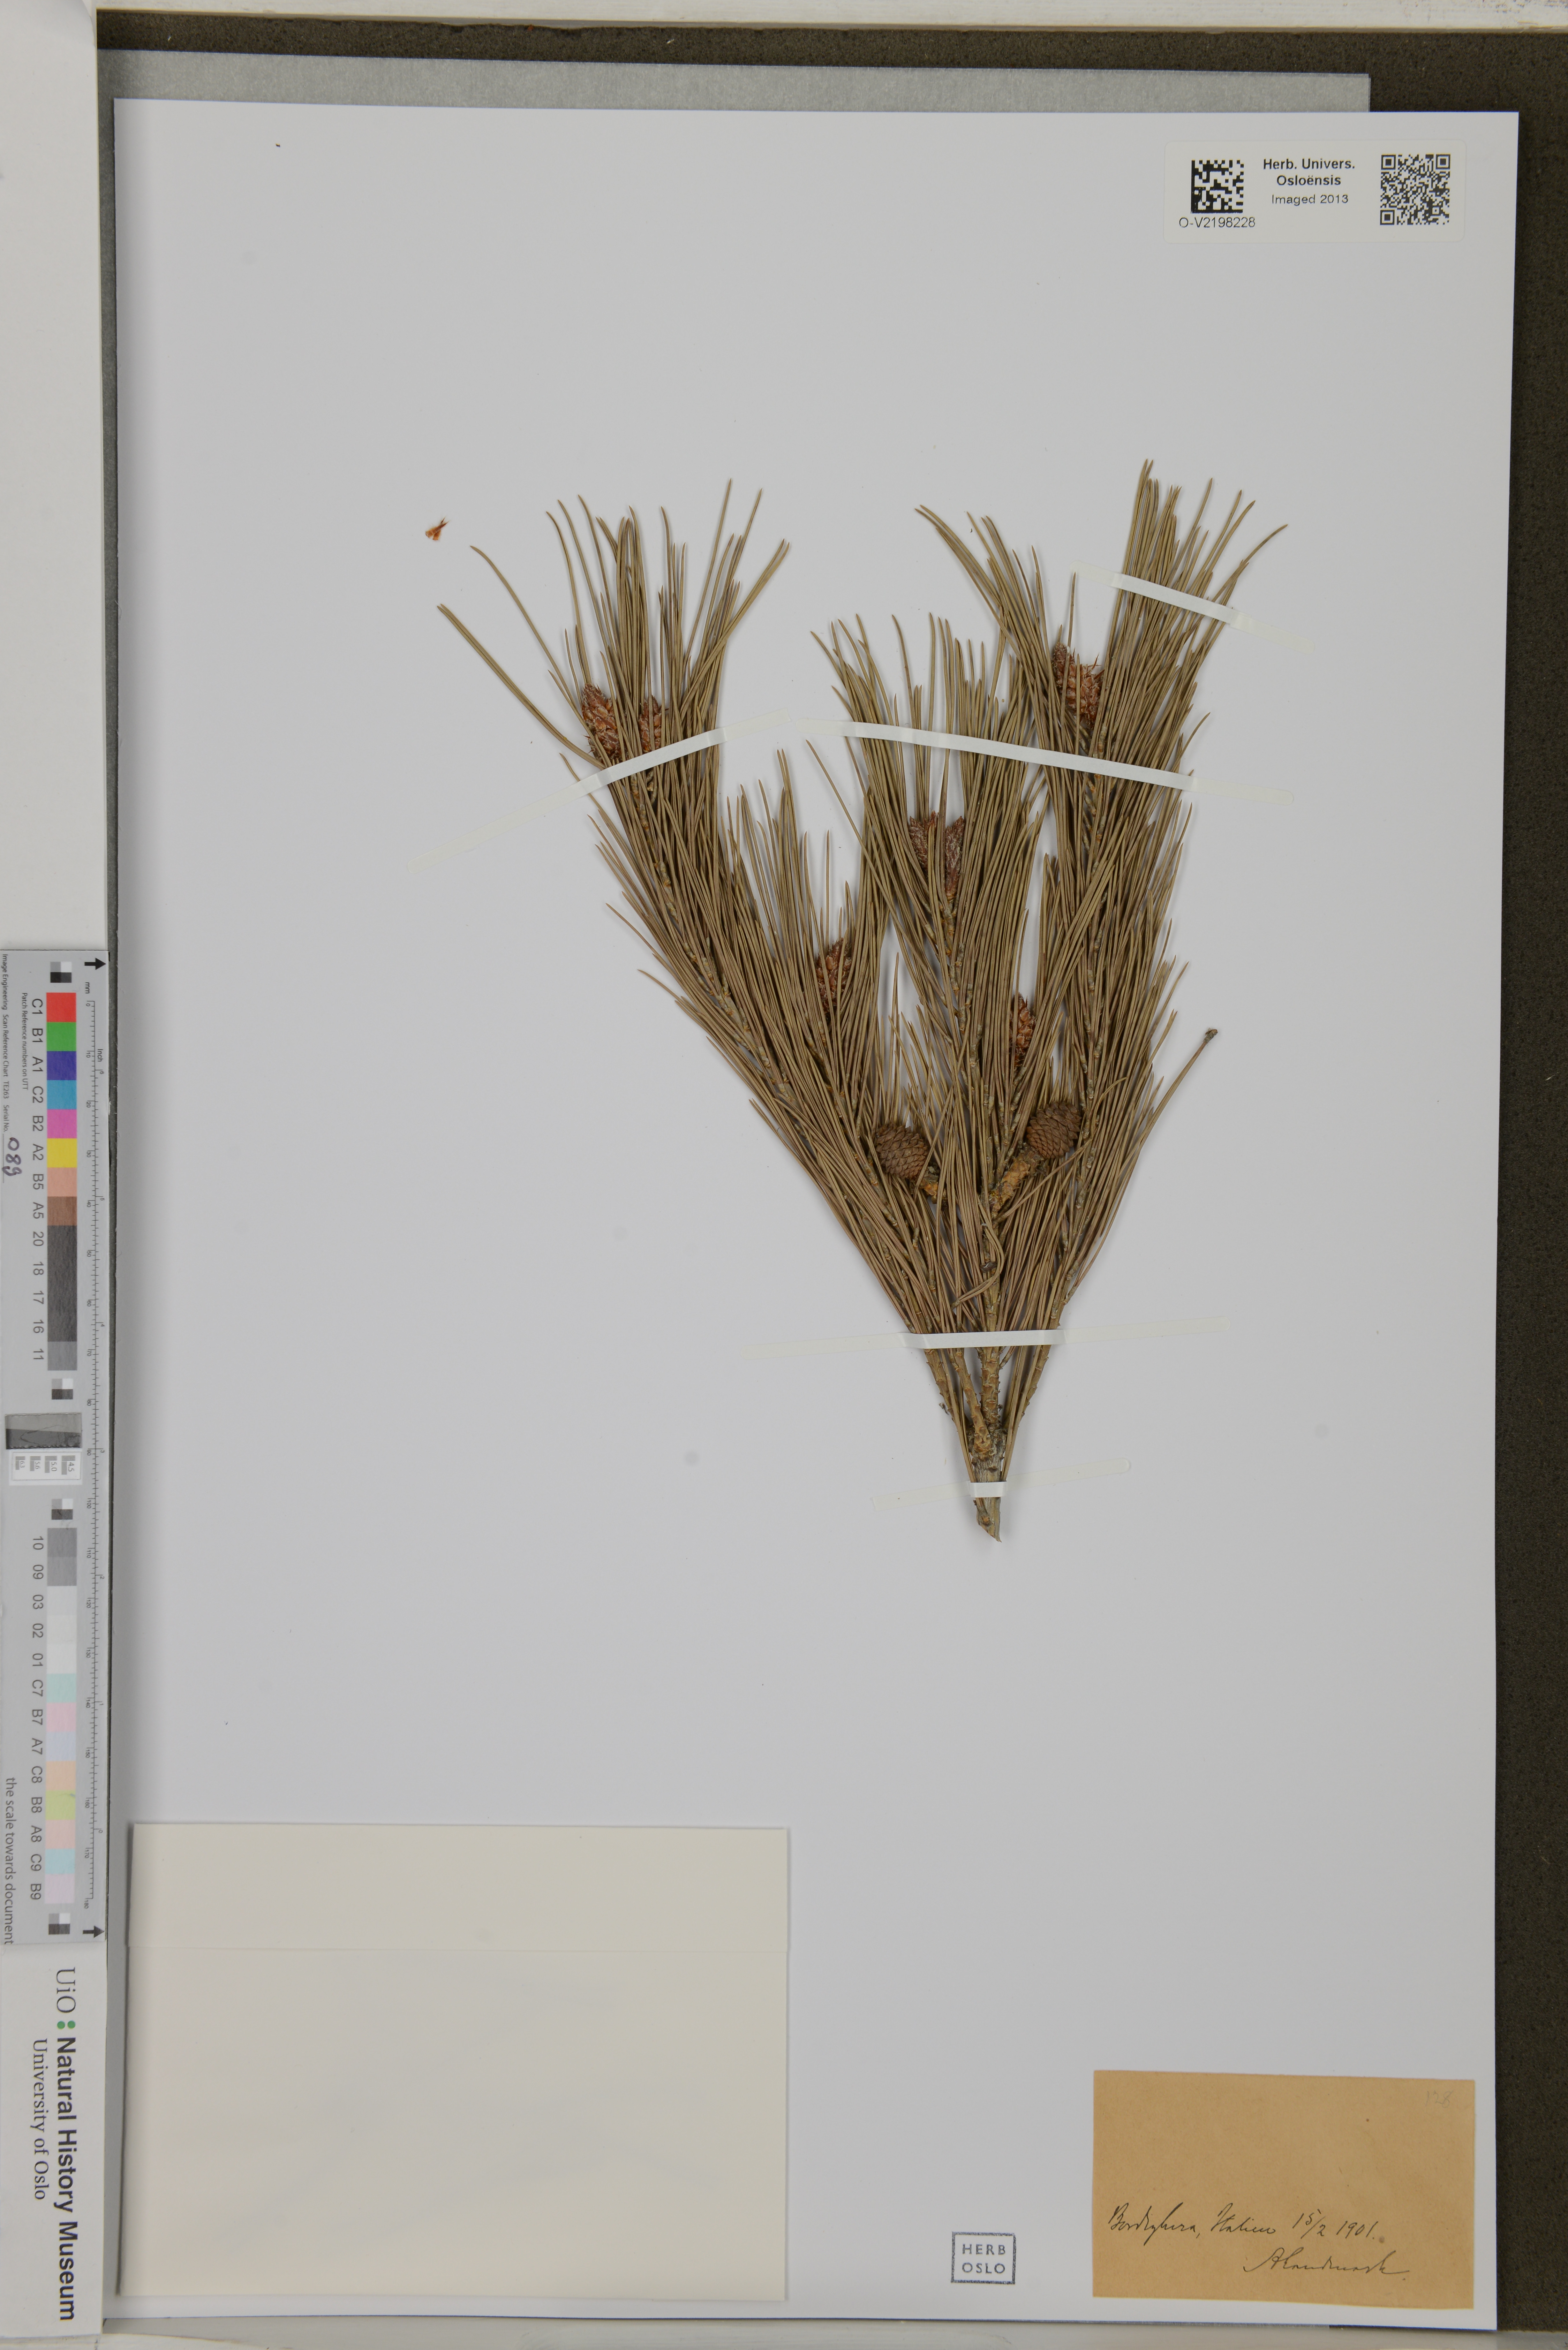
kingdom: Plantae
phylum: Tracheophyta
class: Pinopsida
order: Pinales
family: Pinaceae
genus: Pinus
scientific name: Pinus
